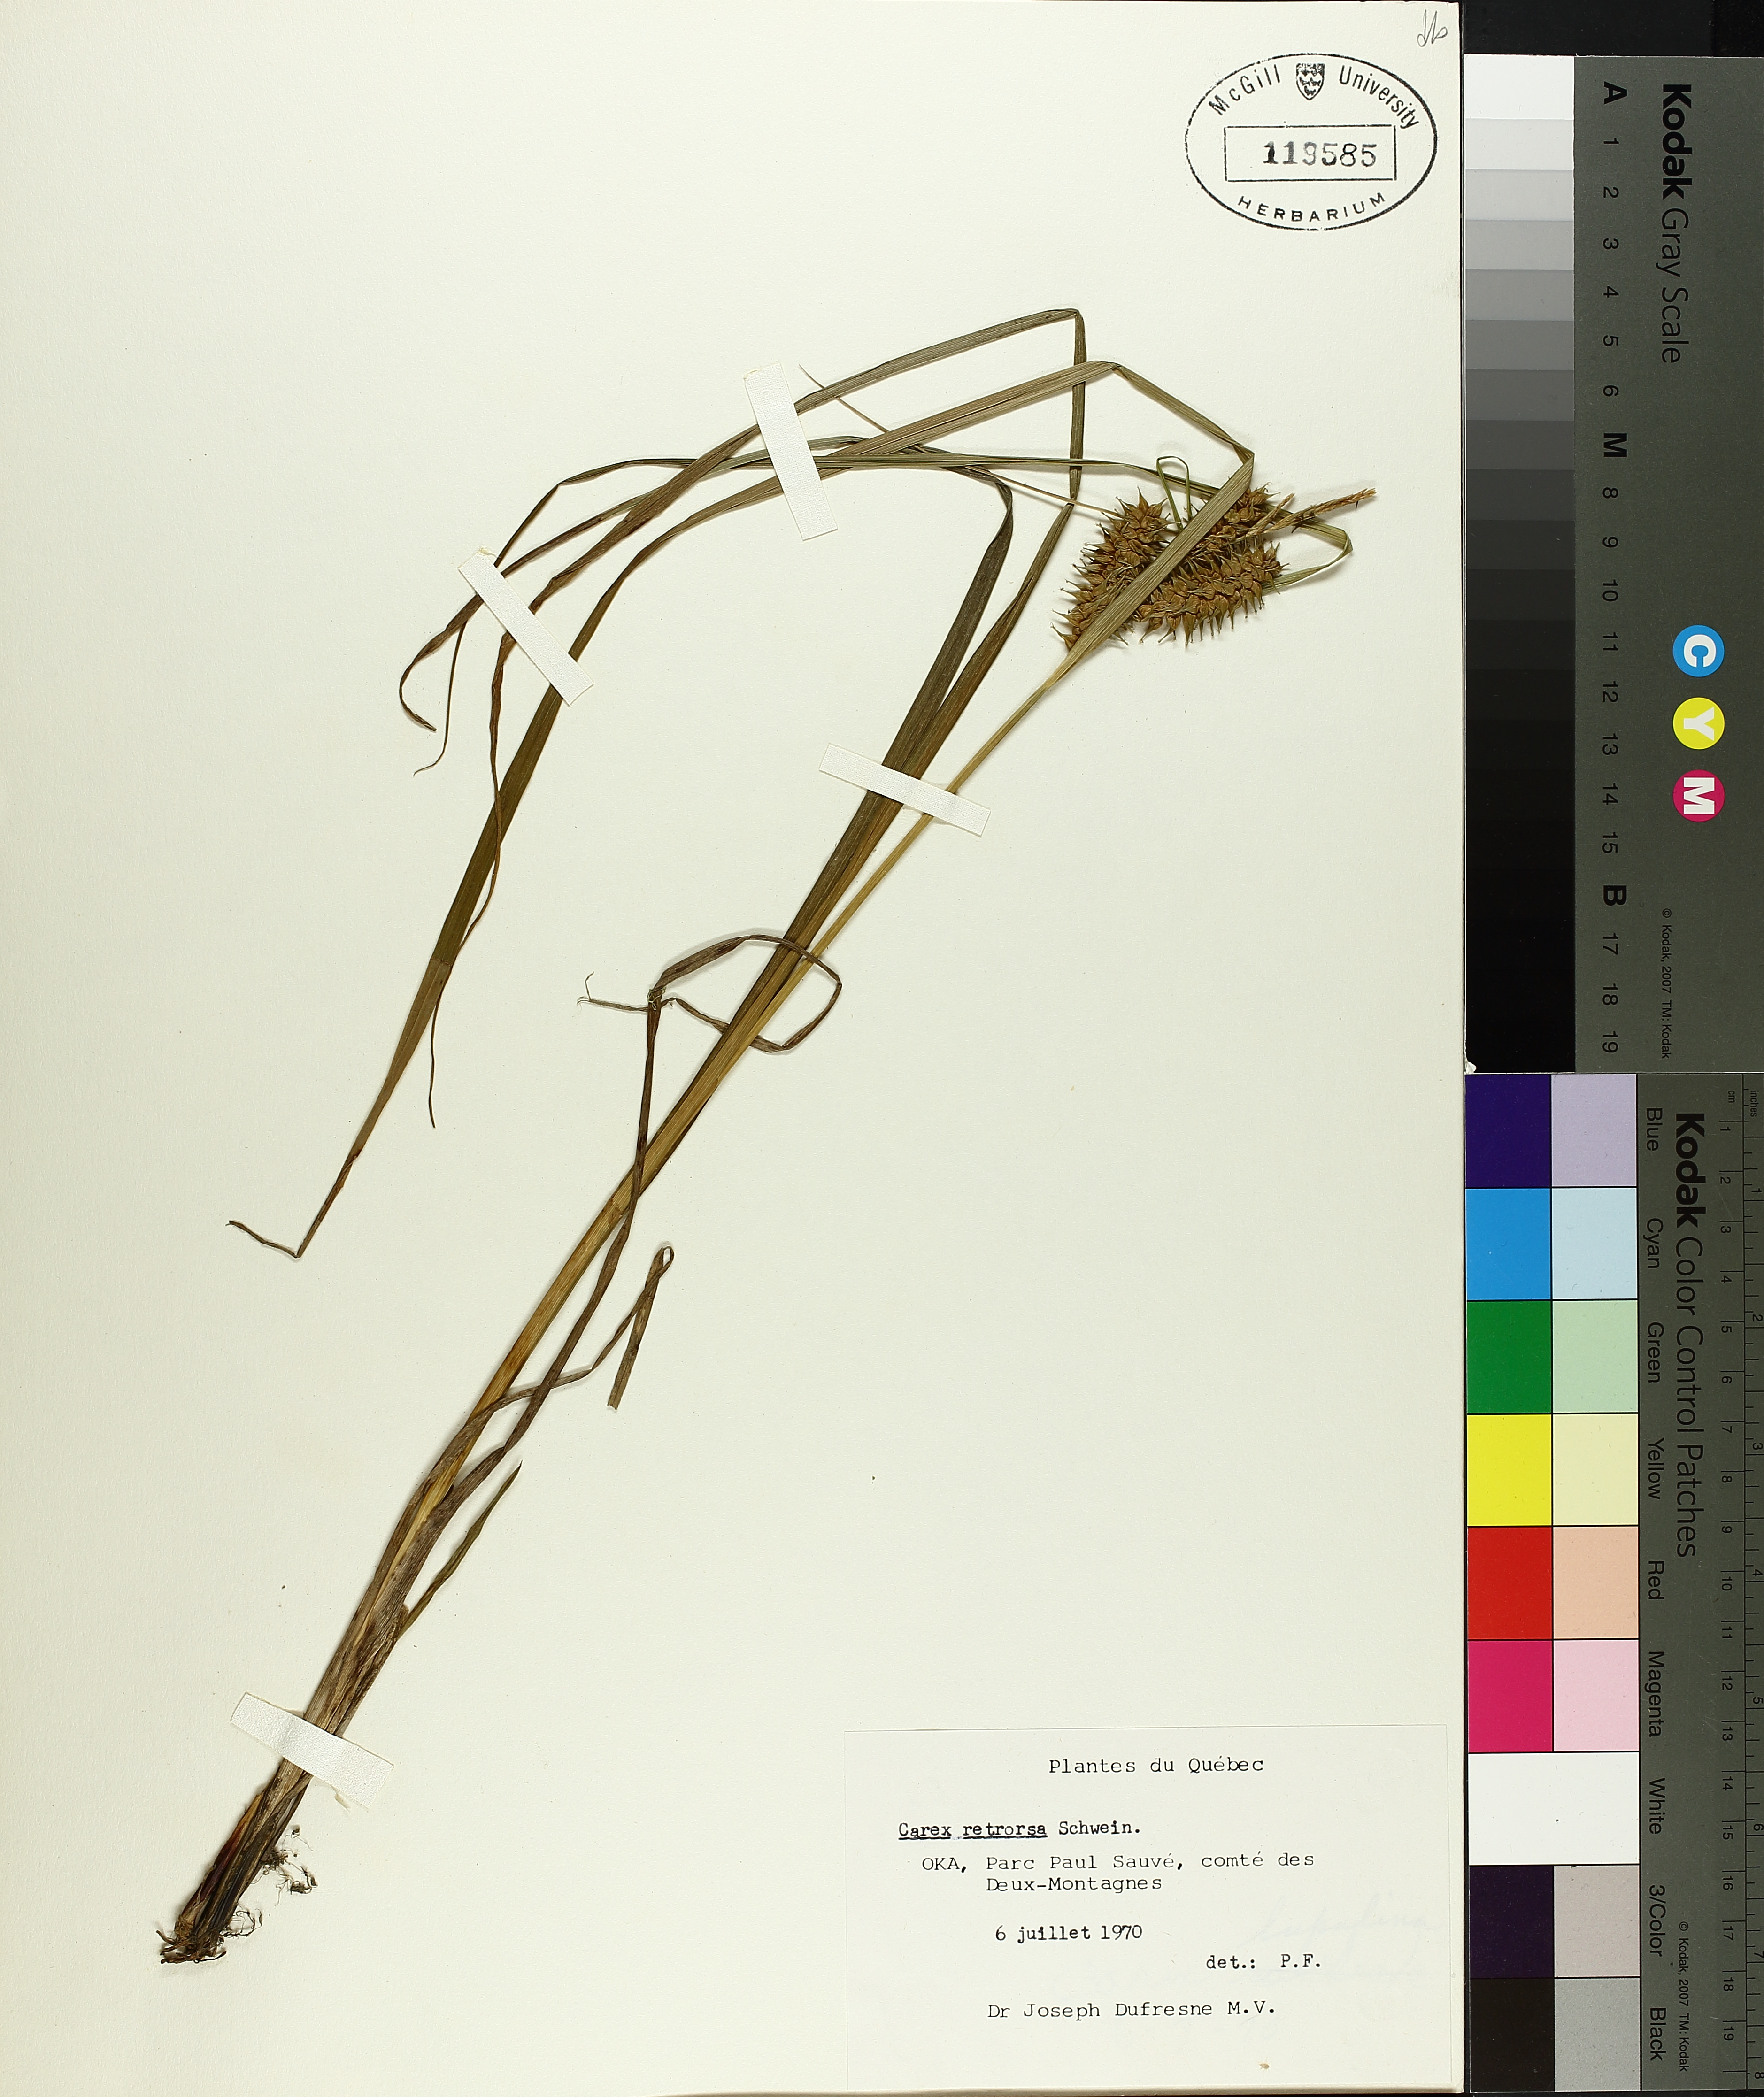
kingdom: Plantae
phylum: Tracheophyta
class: Liliopsida
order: Poales
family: Cyperaceae
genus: Carex
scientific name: Carex retrorsa
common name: Knot-sheath sedge
